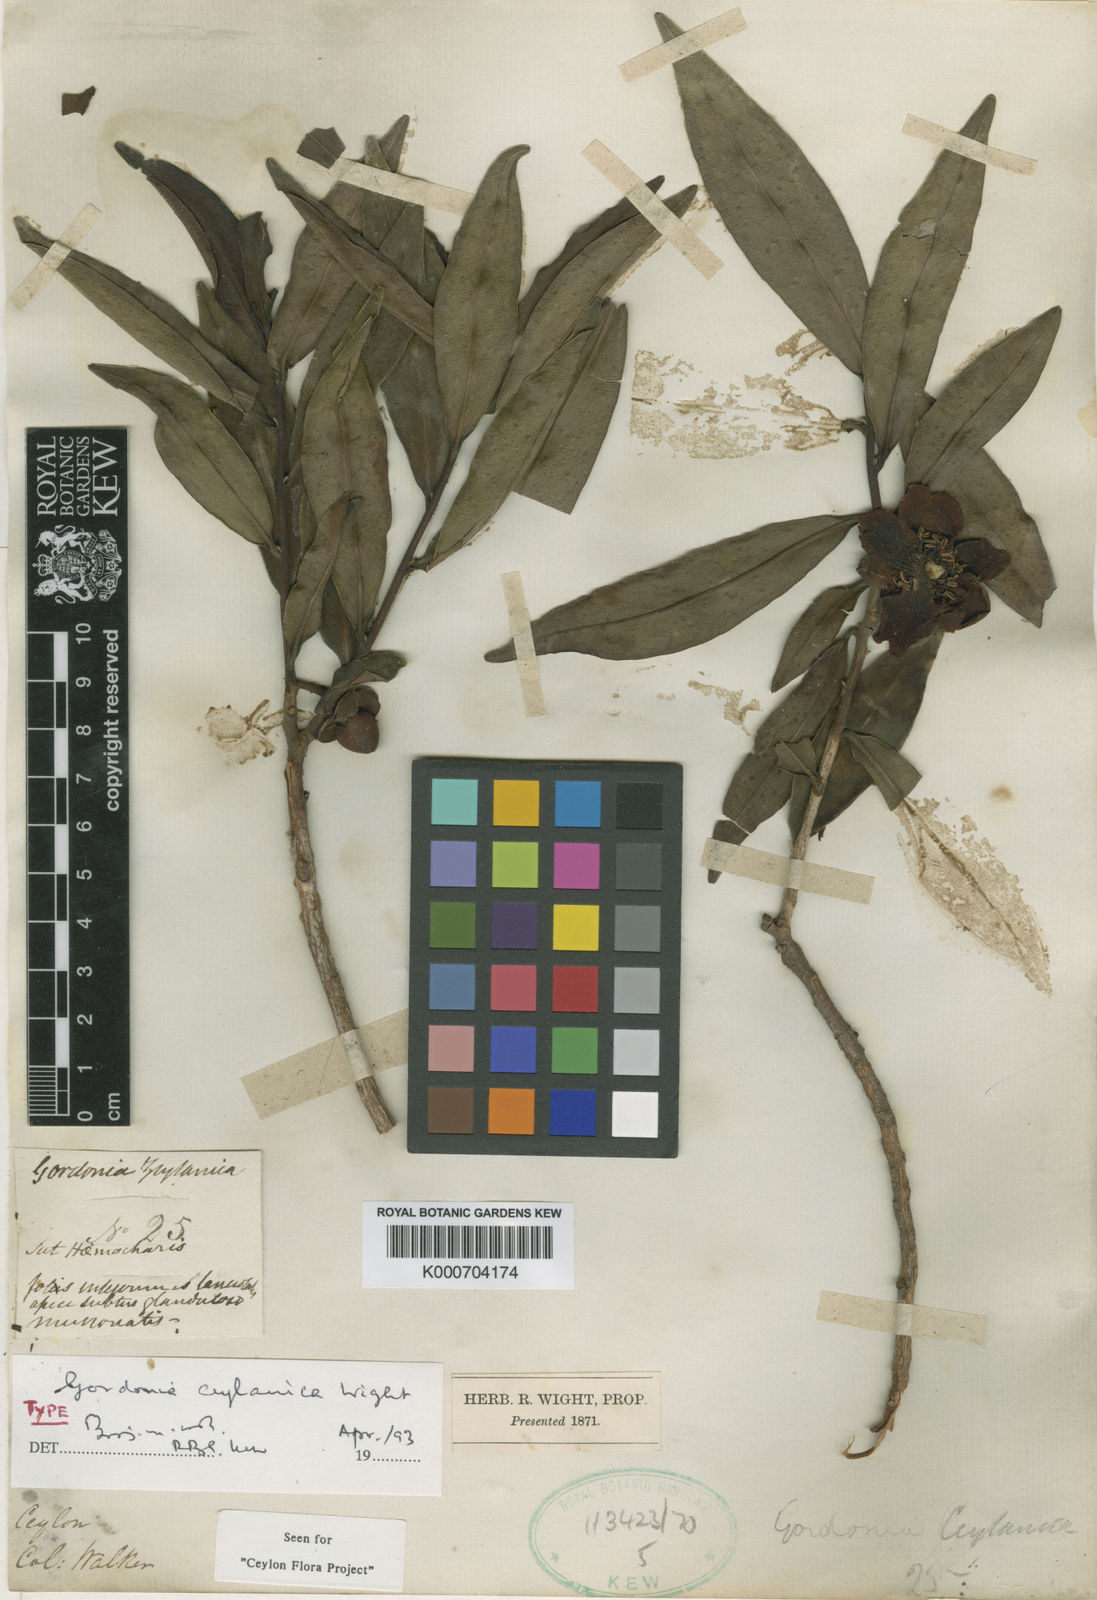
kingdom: Plantae
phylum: Tracheophyta
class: Magnoliopsida
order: Ericales
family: Theaceae
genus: Gordonia
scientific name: Gordonia
